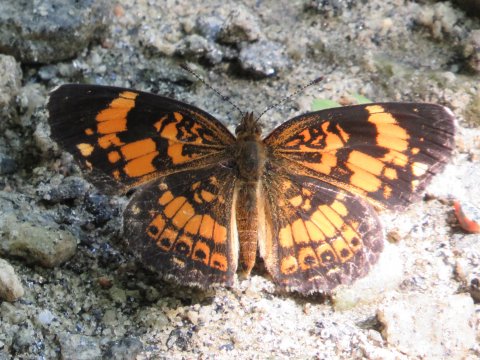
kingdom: Animalia
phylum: Arthropoda
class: Insecta
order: Lepidoptera
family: Nymphalidae
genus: Chlosyne
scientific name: Chlosyne nycteis
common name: Silvery Checkerspot
